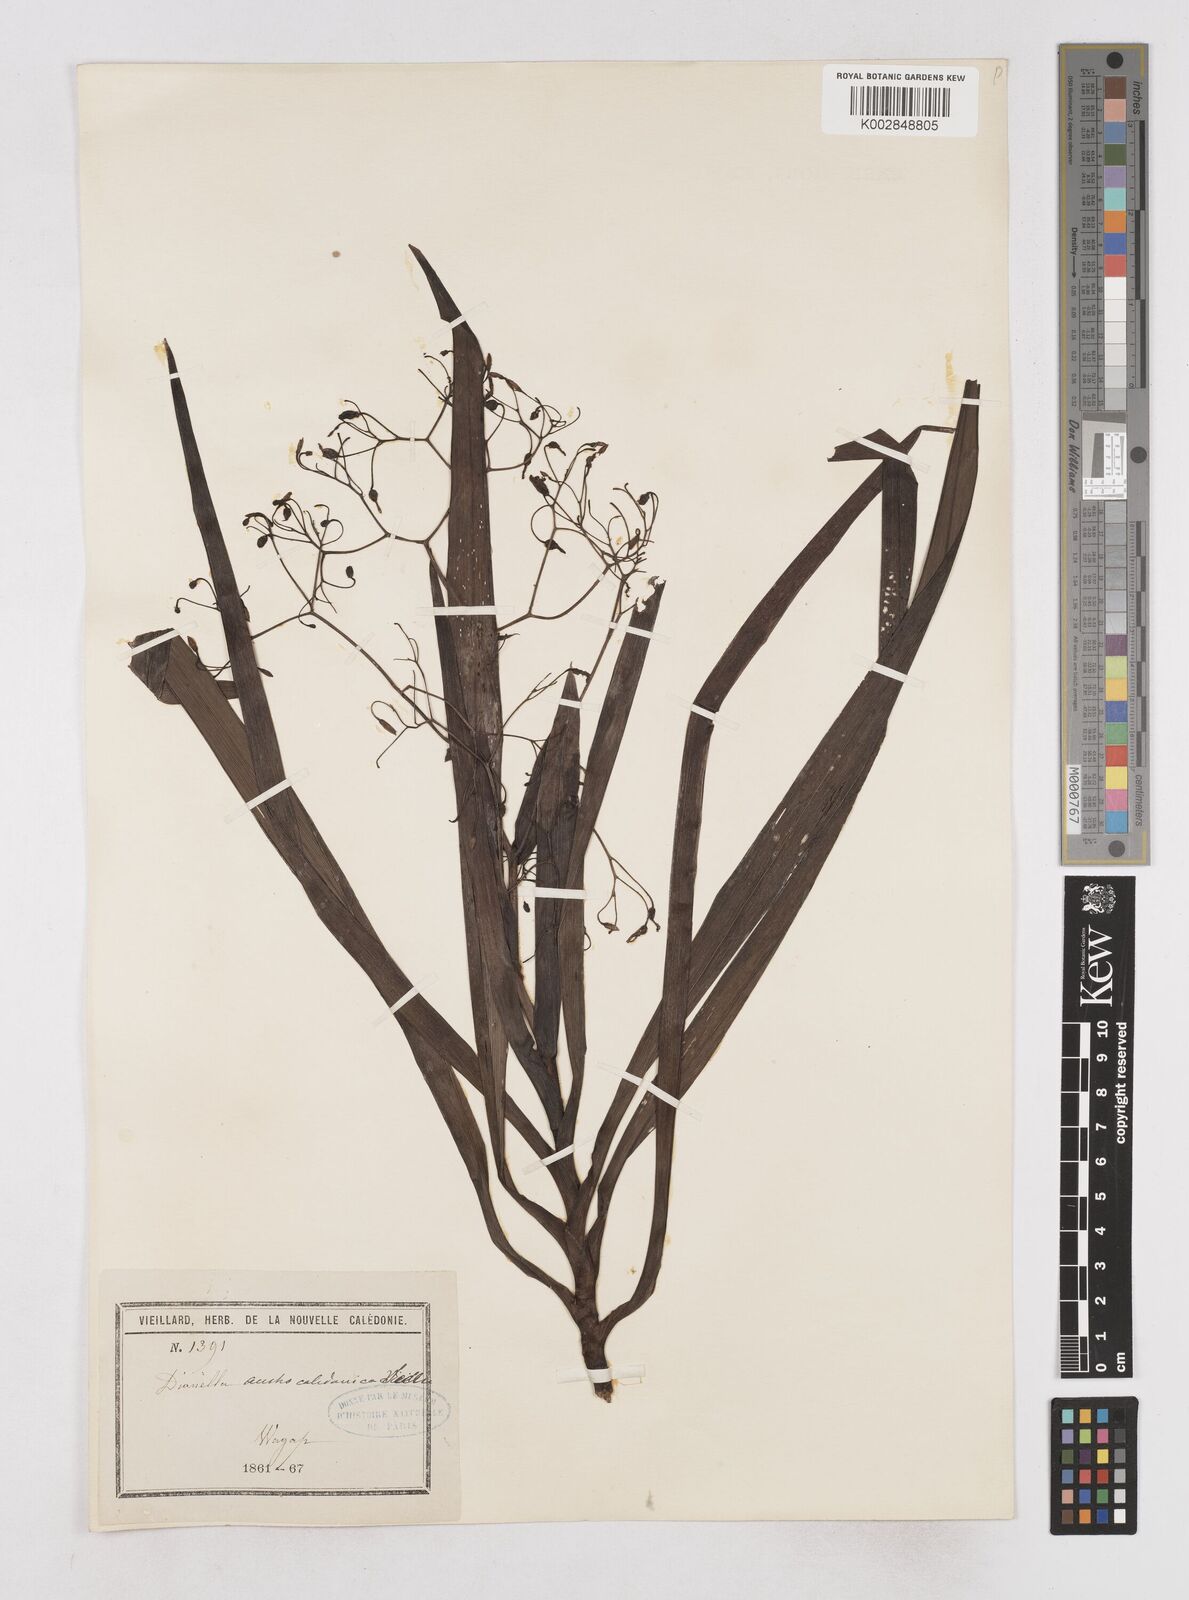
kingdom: Plantae
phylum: Tracheophyta
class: Liliopsida
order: Asparagales
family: Asphodelaceae
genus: Rhuacophila
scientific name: Rhuacophila javanica
